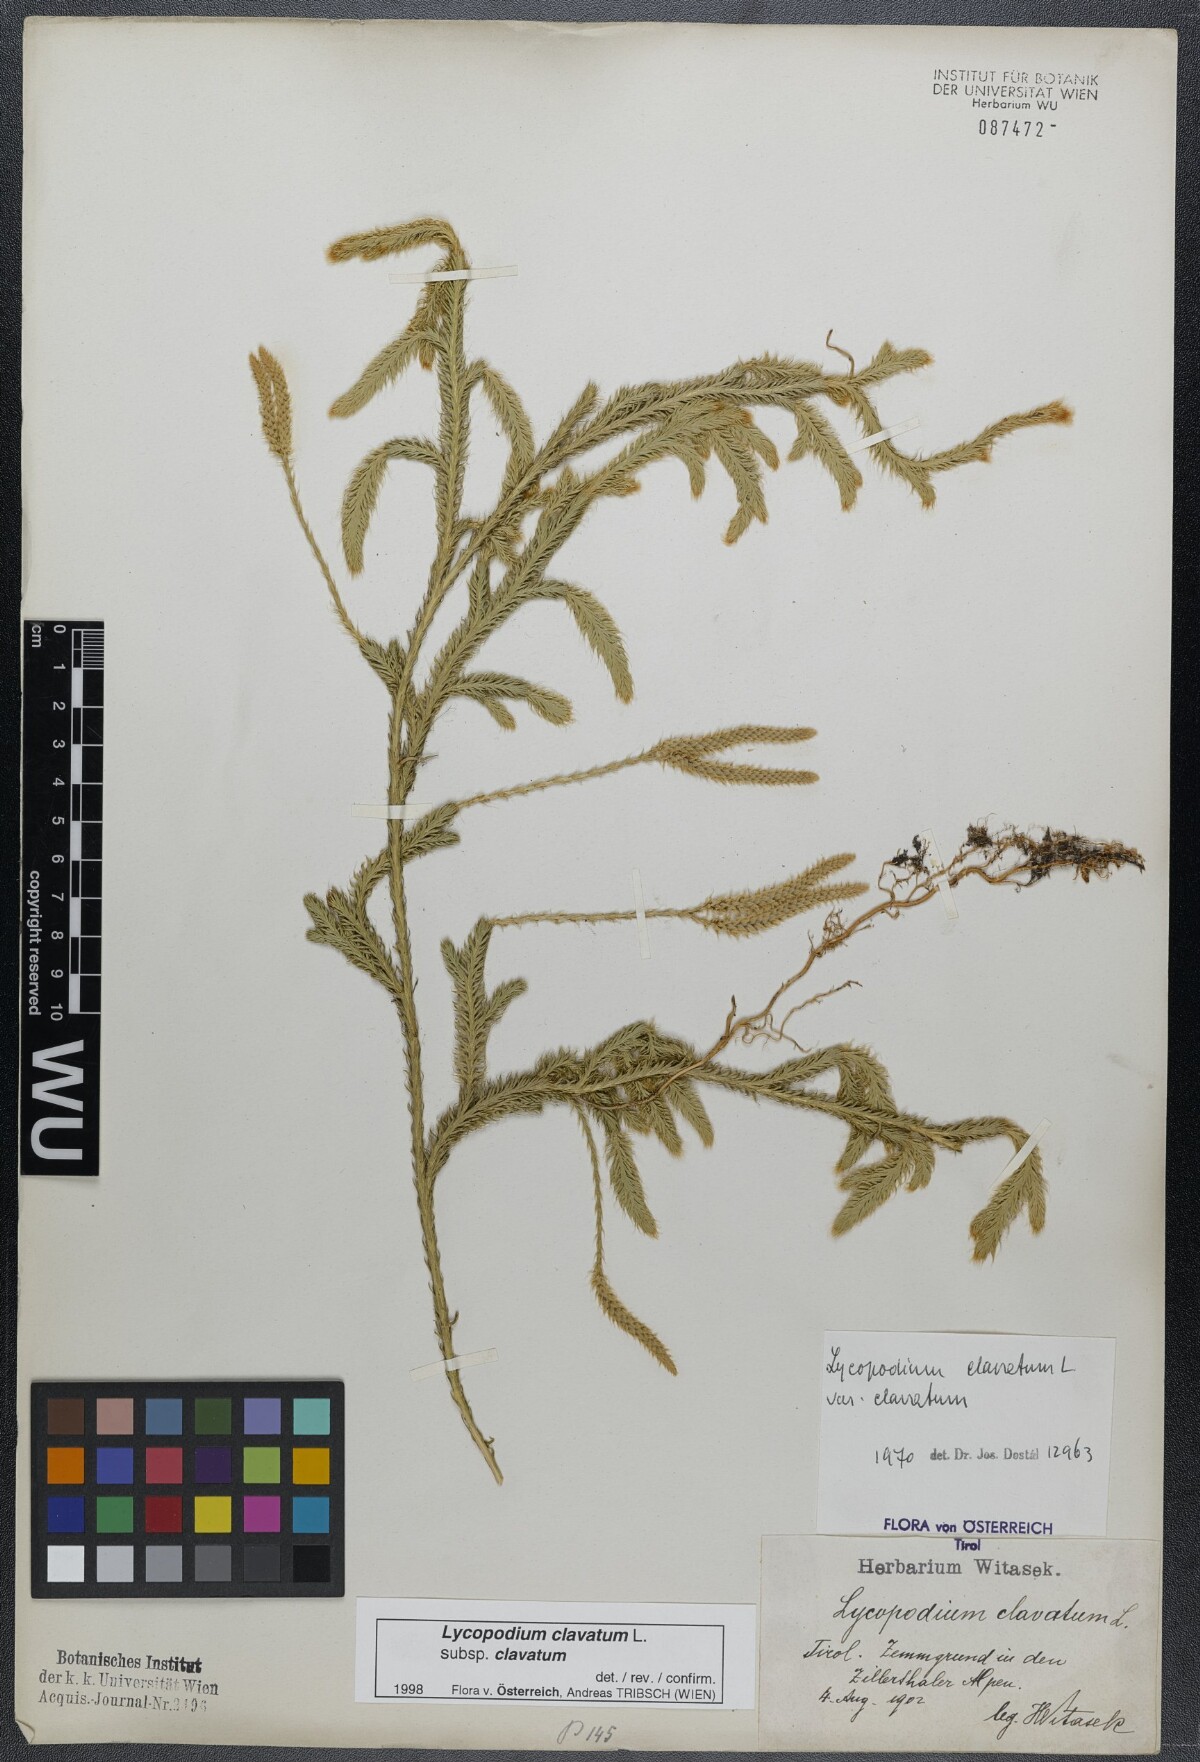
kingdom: Plantae
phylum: Tracheophyta
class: Lycopodiopsida
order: Lycopodiales
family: Lycopodiaceae
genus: Lycopodium
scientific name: Lycopodium clavatum
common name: Stag's-horn clubmoss
